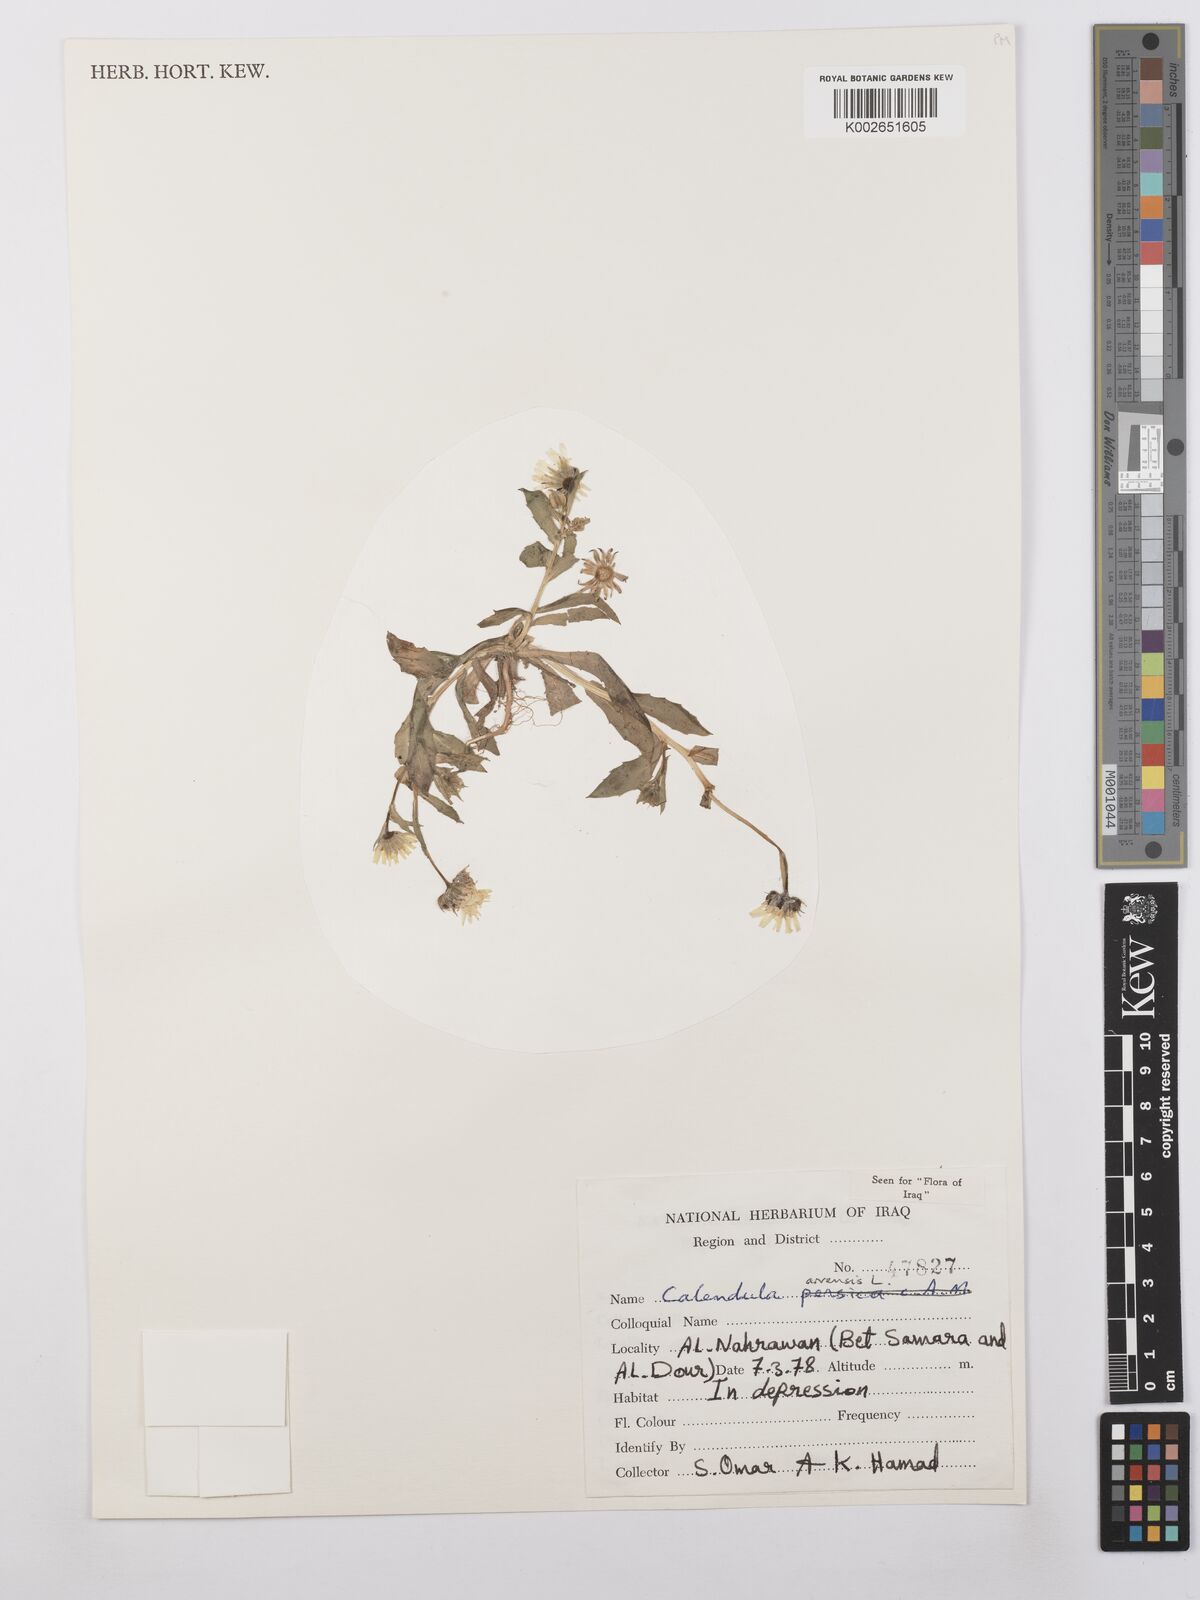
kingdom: Plantae
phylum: Tracheophyta
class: Magnoliopsida
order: Asterales
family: Asteraceae
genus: Calendula
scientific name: Calendula arvensis
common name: Field marigold
